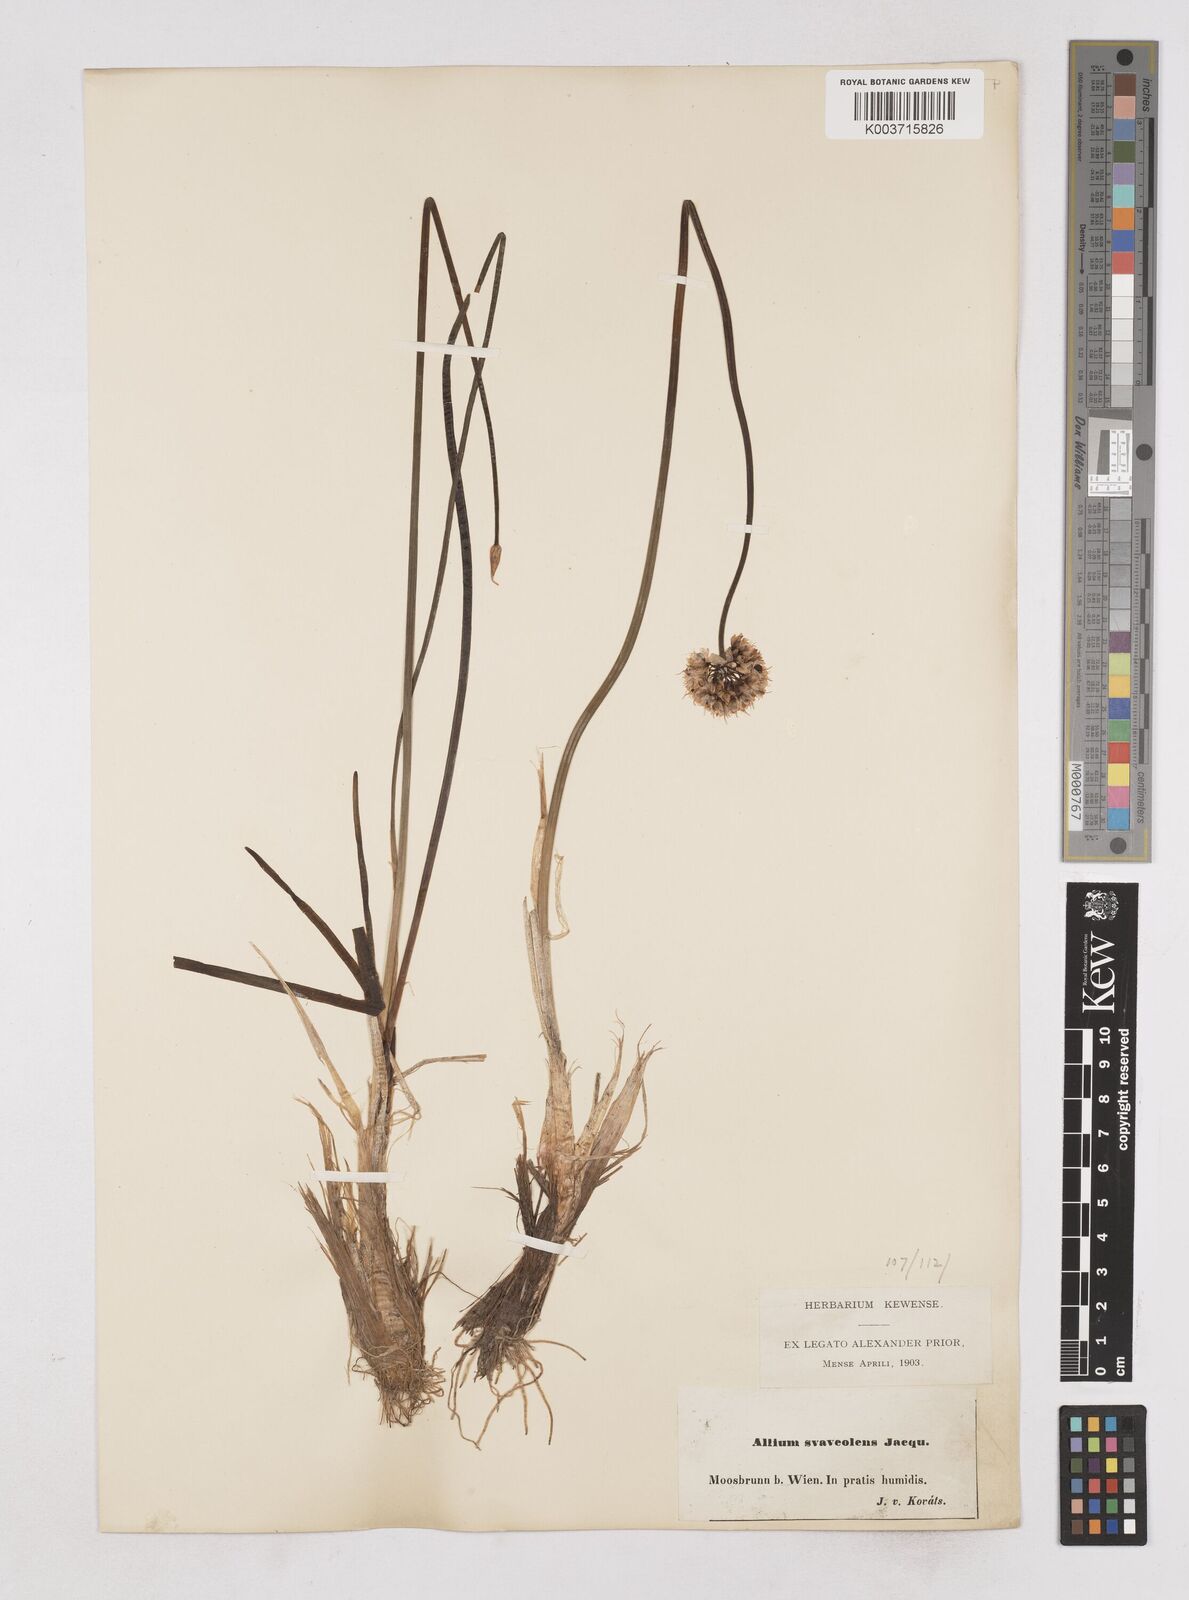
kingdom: Plantae
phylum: Tracheophyta
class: Liliopsida
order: Asparagales
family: Amaryllidaceae
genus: Allium
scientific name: Allium suaveolens
